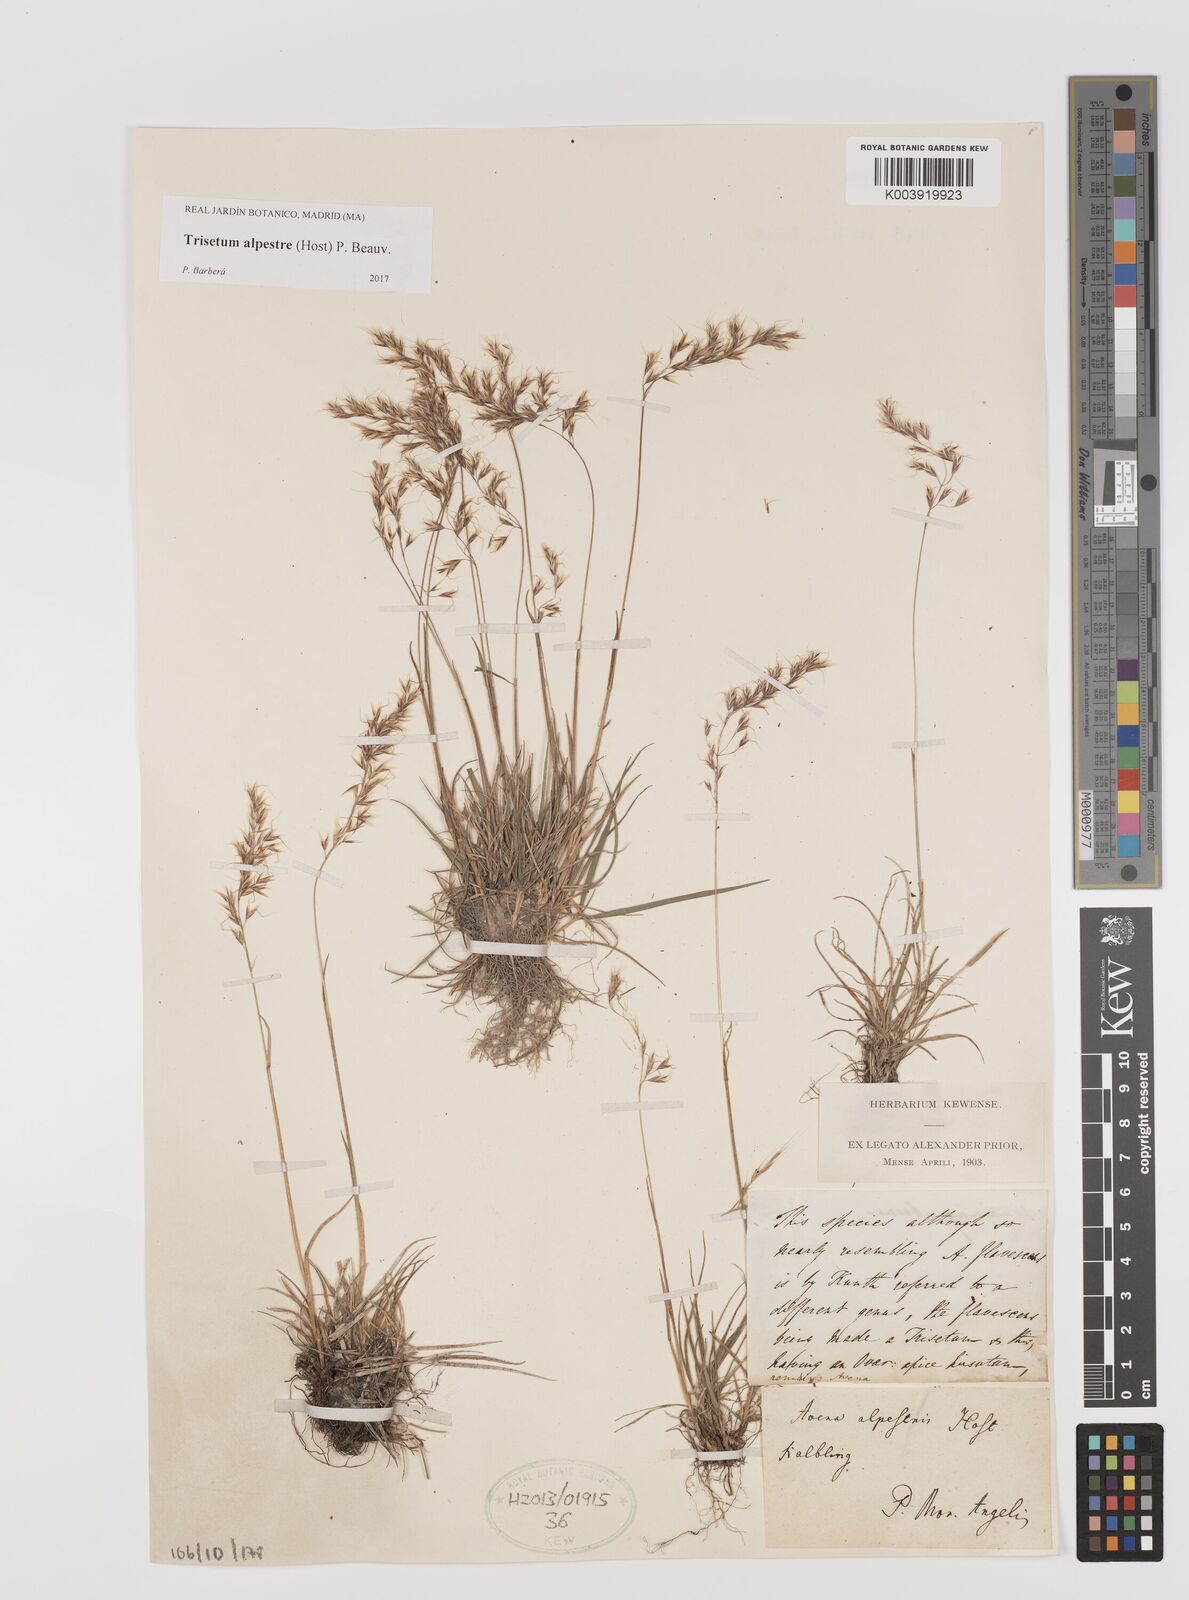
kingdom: Plantae
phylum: Tracheophyta
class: Liliopsida
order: Poales
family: Poaceae
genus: Trisetum
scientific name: Trisetum alpestre
